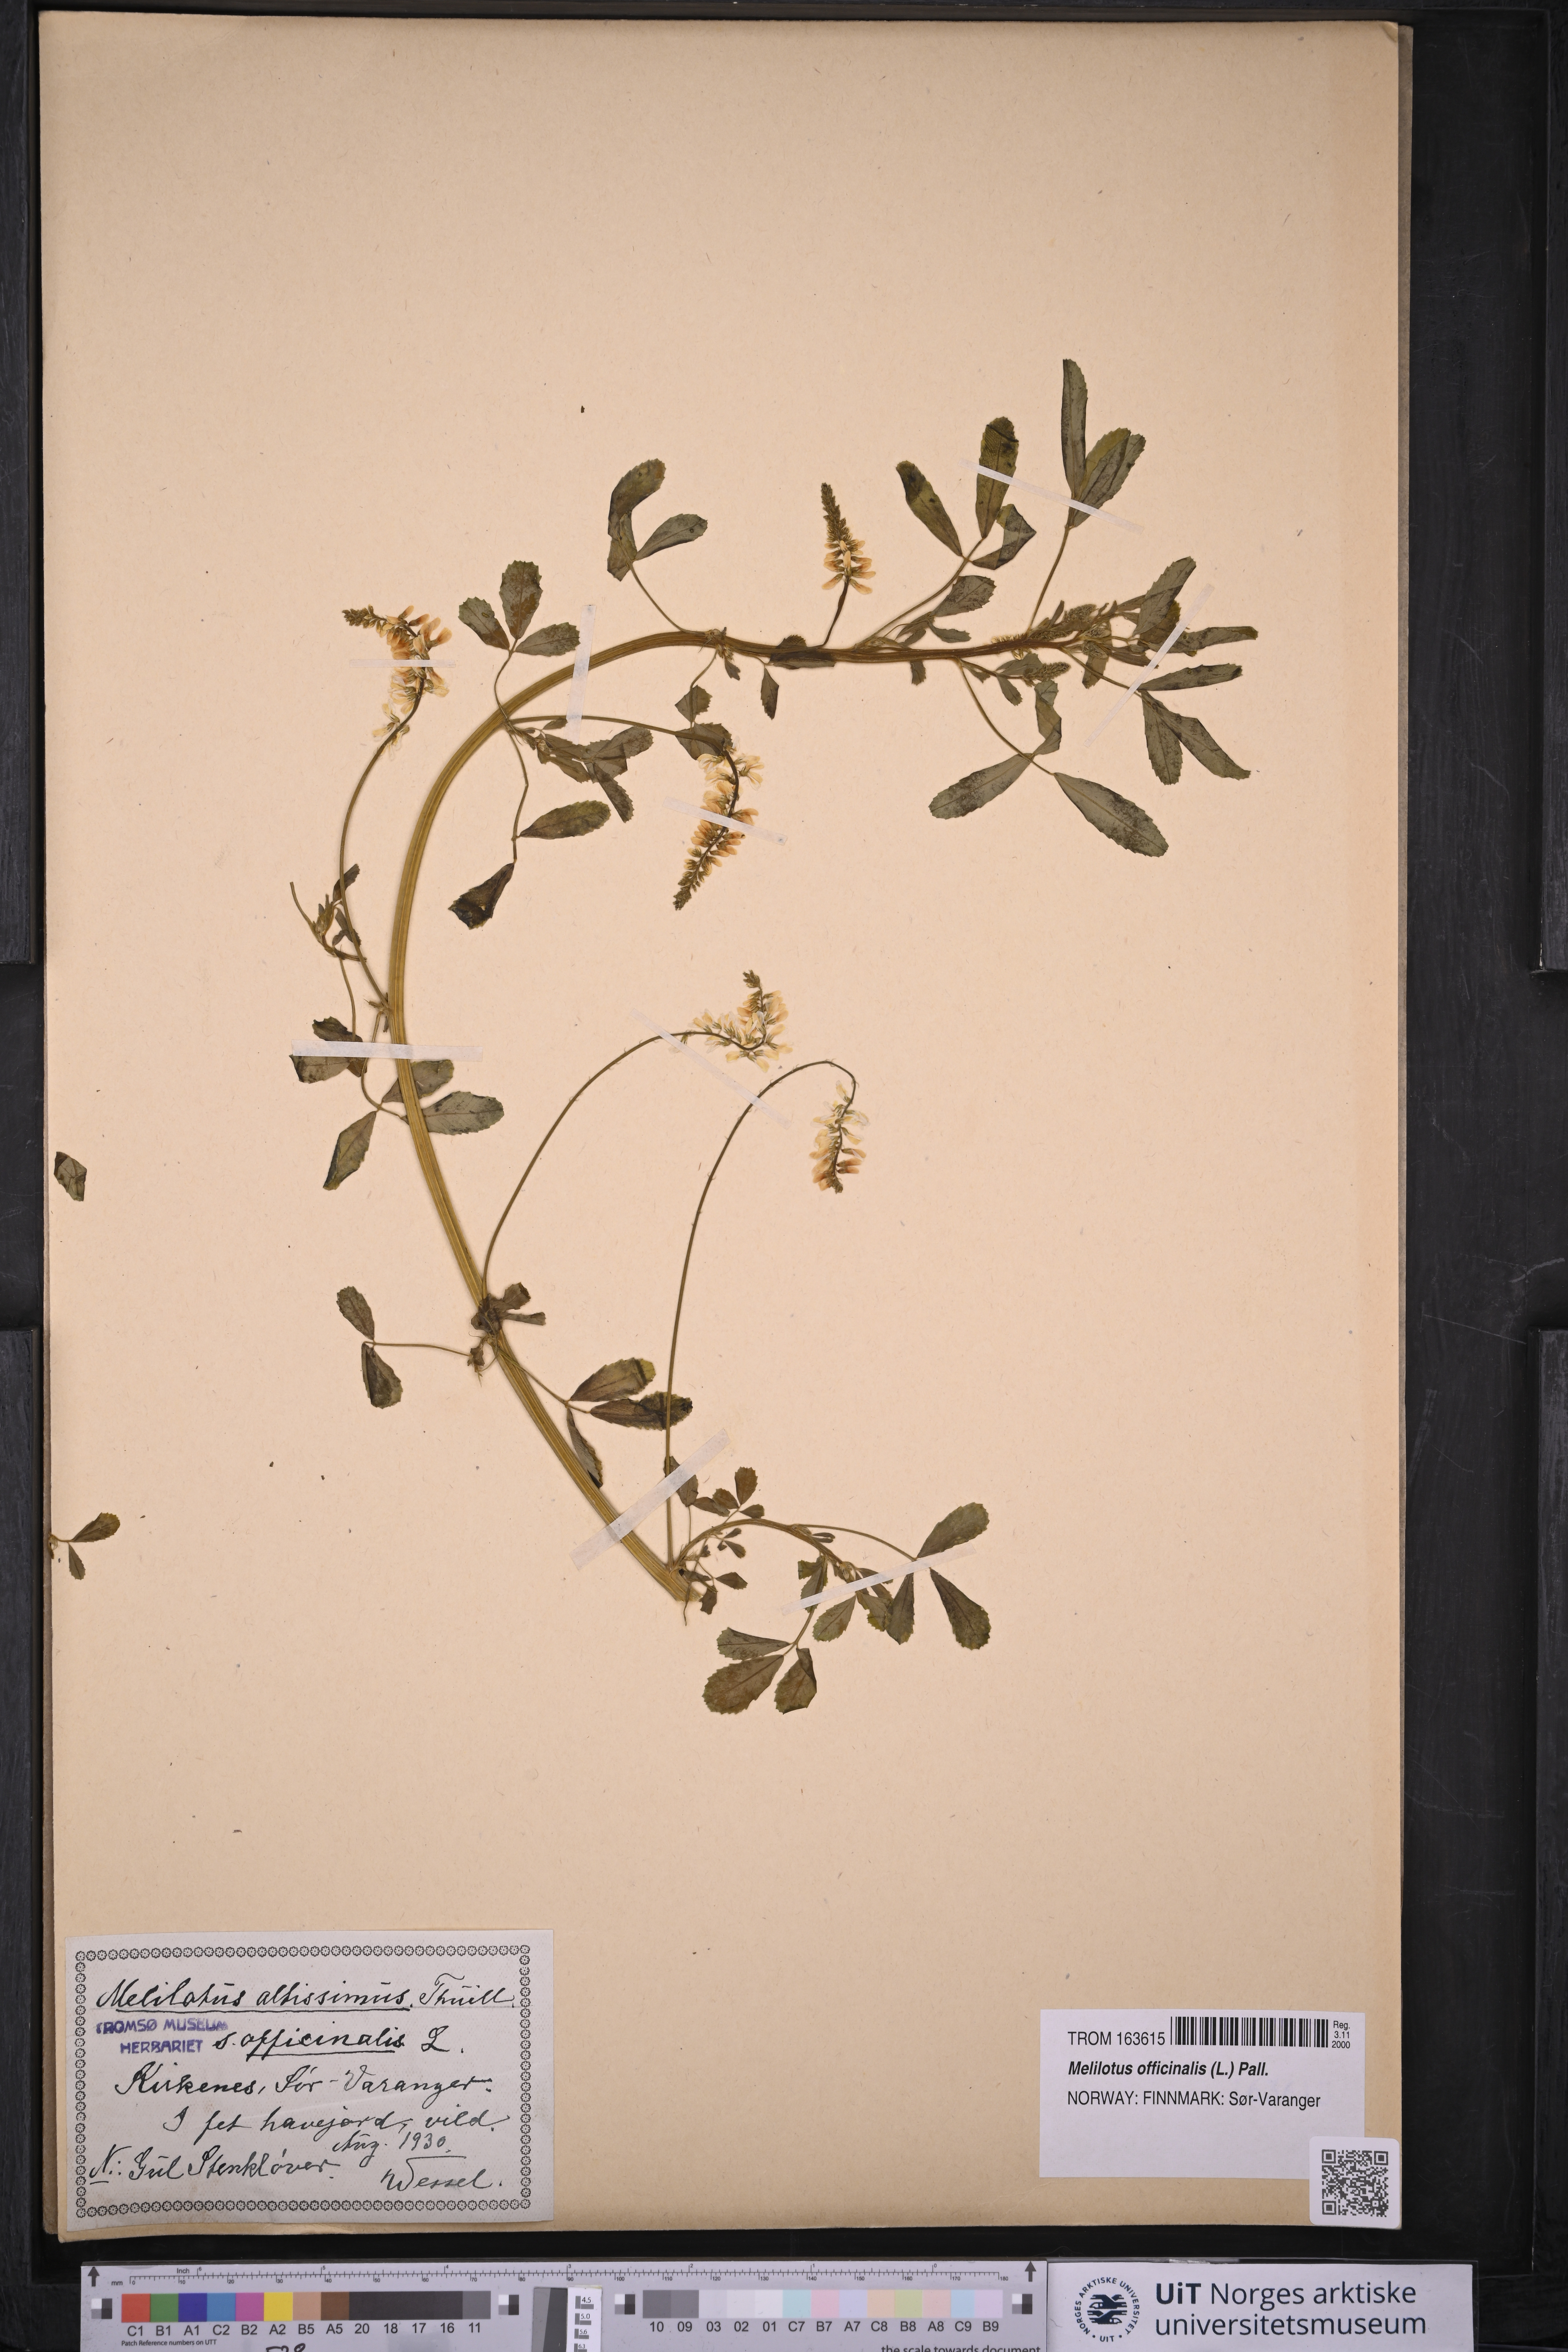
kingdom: Plantae
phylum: Tracheophyta
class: Magnoliopsida
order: Fabales
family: Fabaceae
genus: Melilotus
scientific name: Melilotus officinalis
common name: Sweetclover
